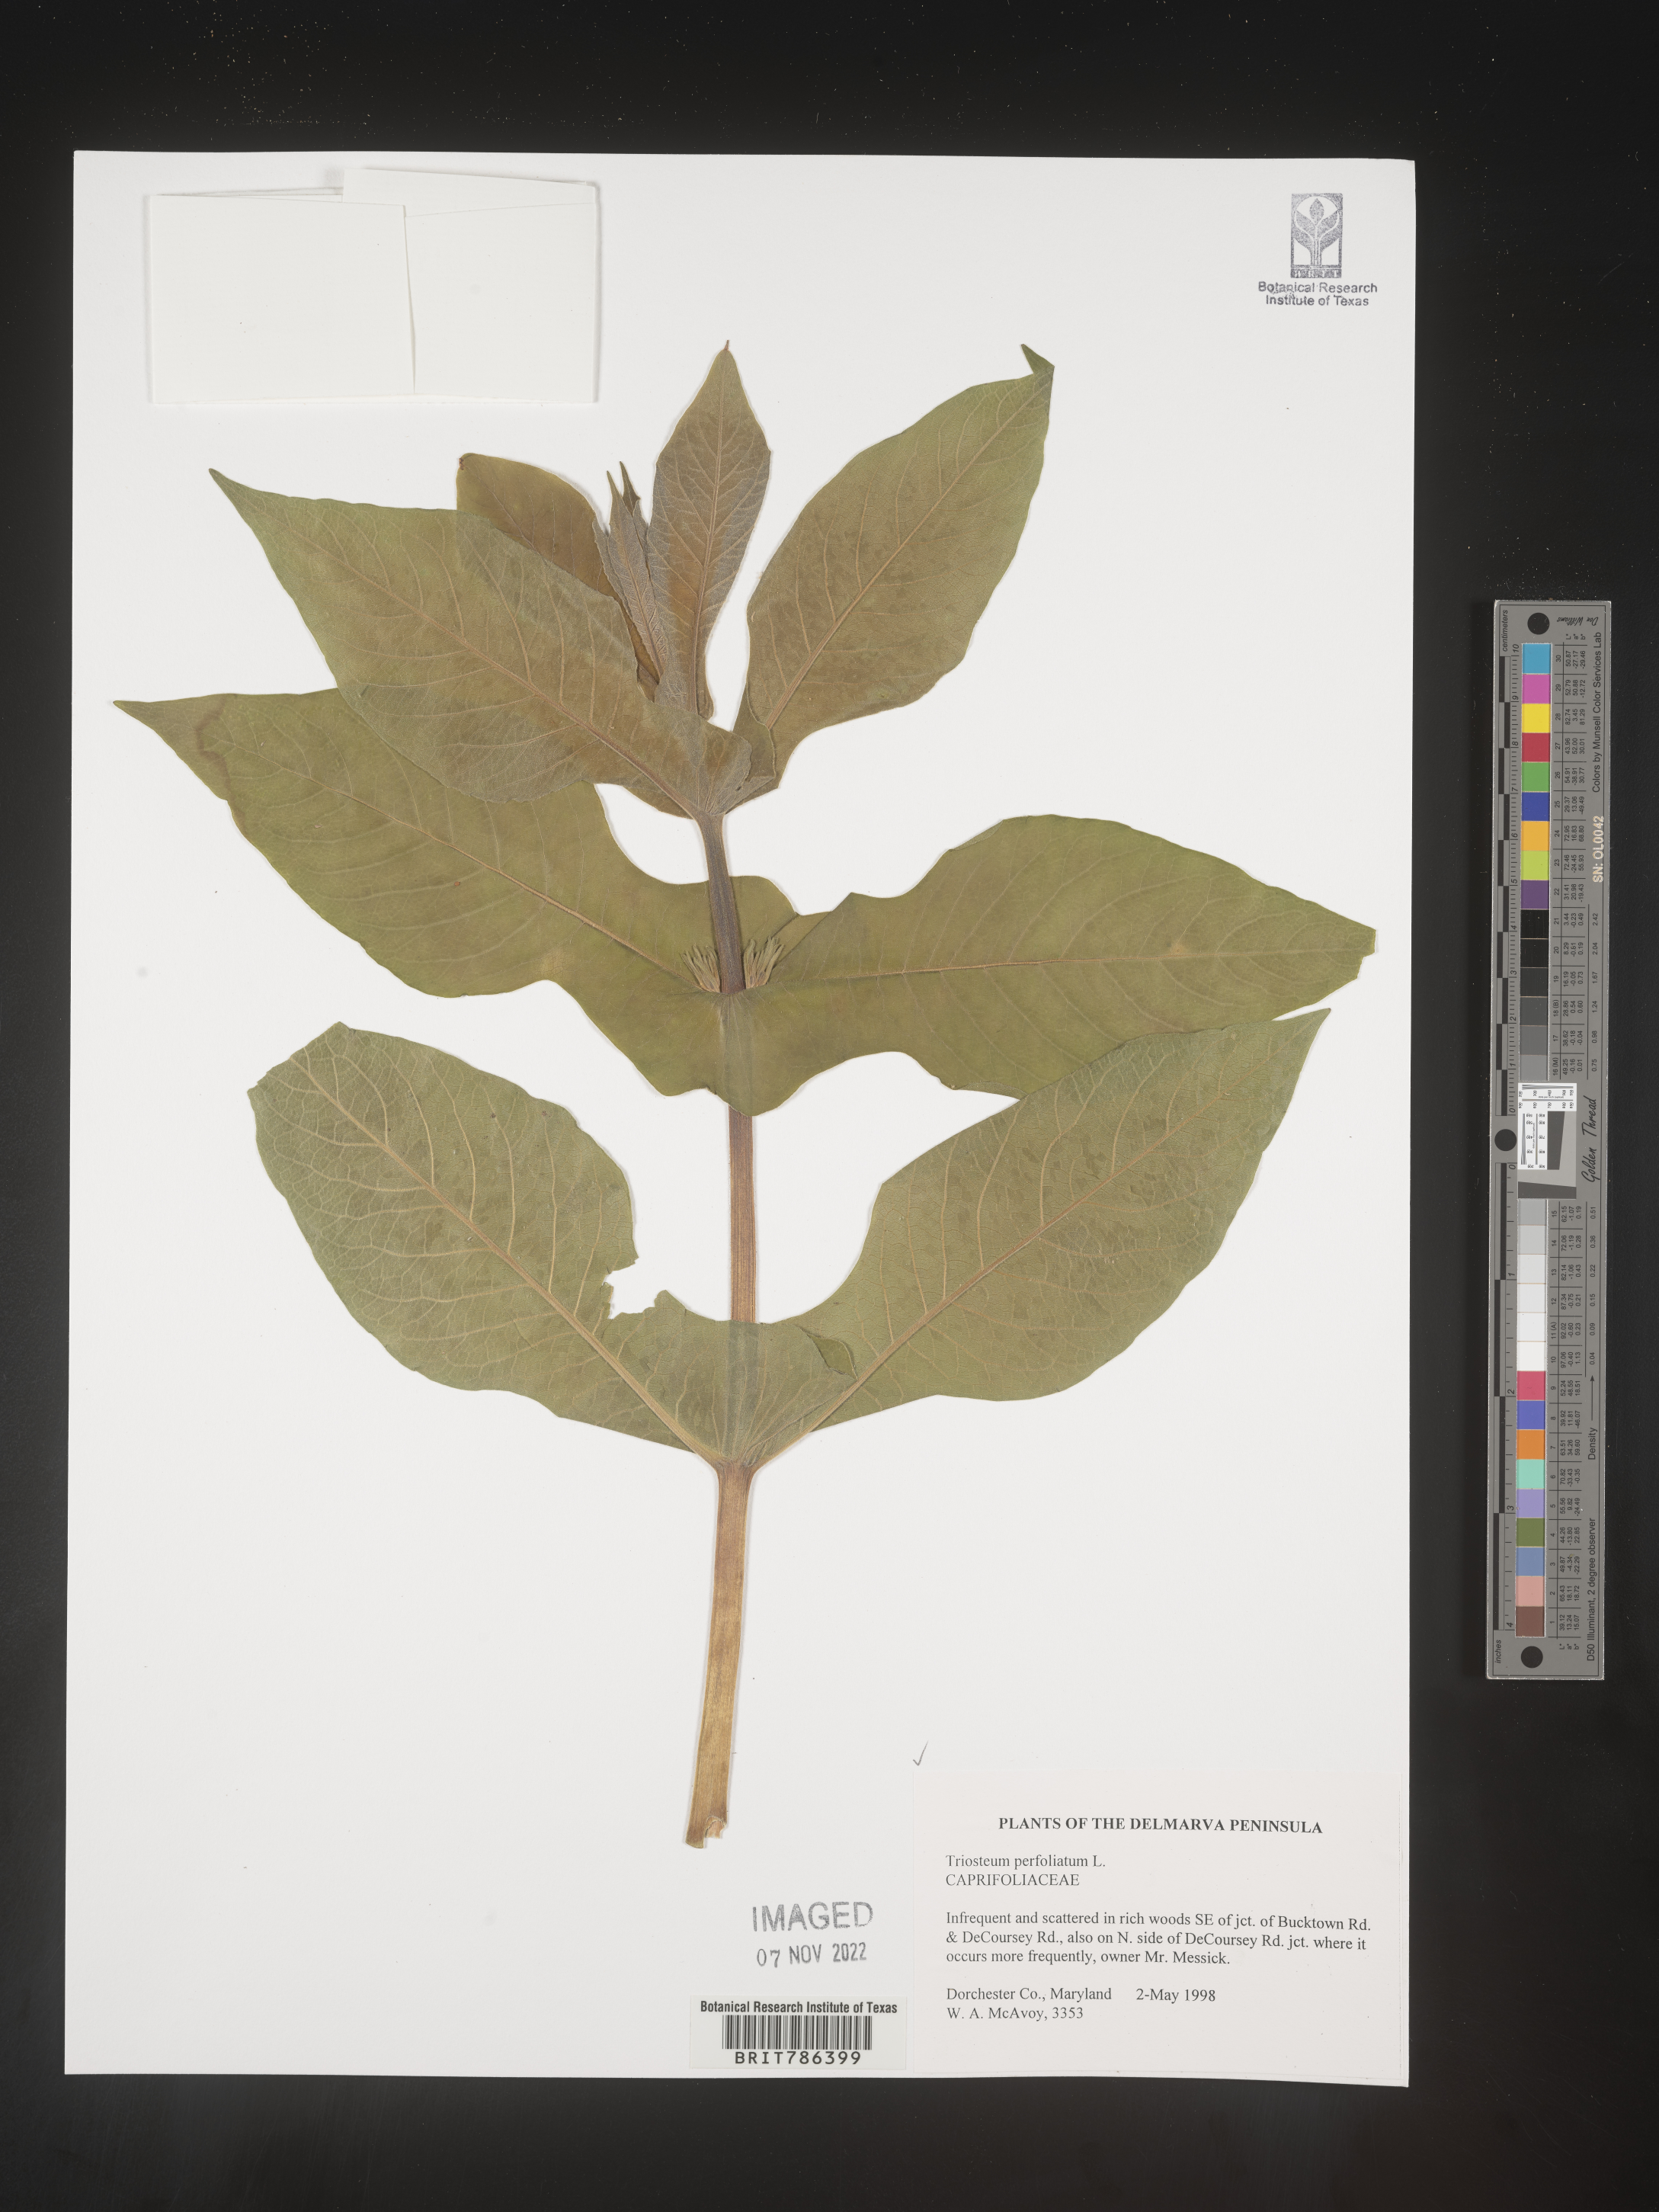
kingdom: Plantae
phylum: Tracheophyta
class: Magnoliopsida
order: Dipsacales
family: Caprifoliaceae
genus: Triosteum
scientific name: Triosteum perfoliatum
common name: Common horse-gentian
